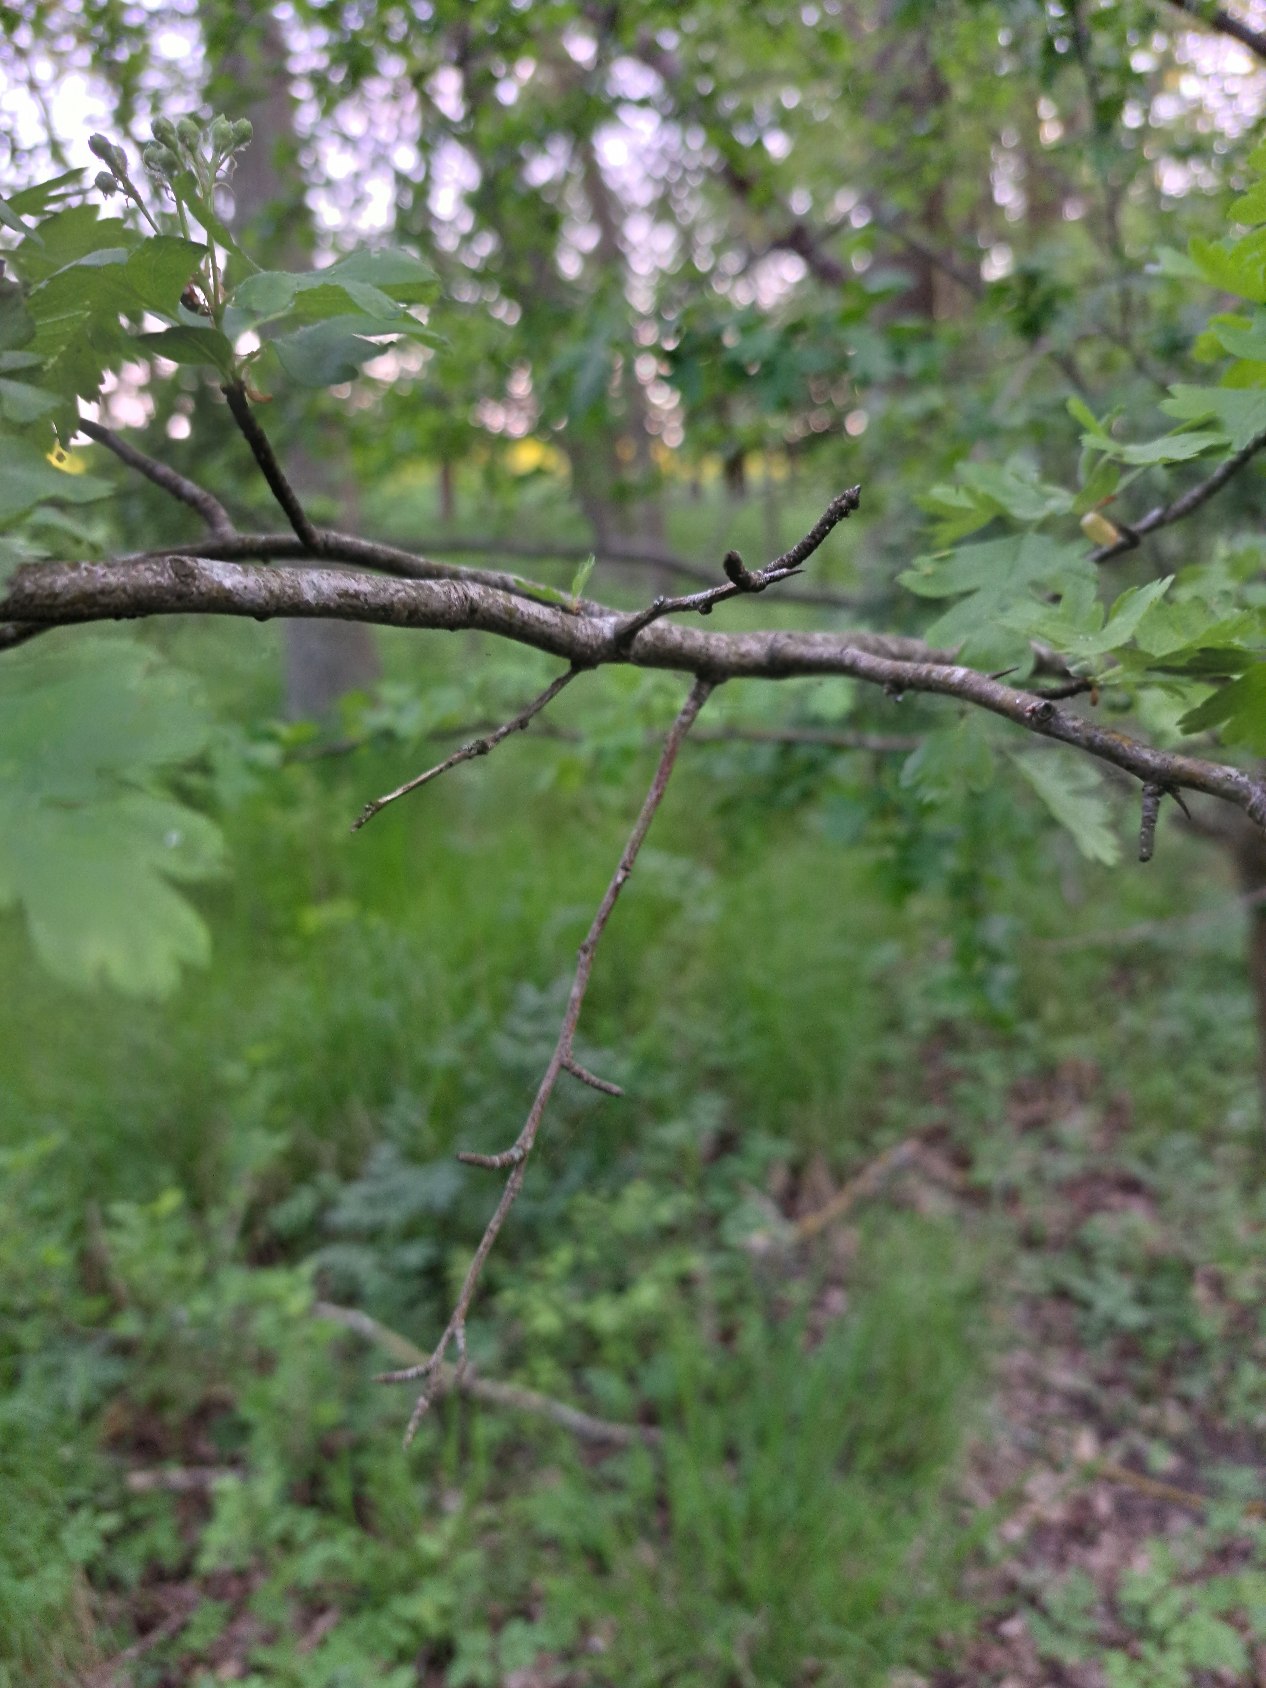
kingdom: Plantae
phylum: Tracheophyta
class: Magnoliopsida
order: Rosales
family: Rosaceae
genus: Crataegus
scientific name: Crataegus monogyna
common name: Engriflet hvidtjørn
